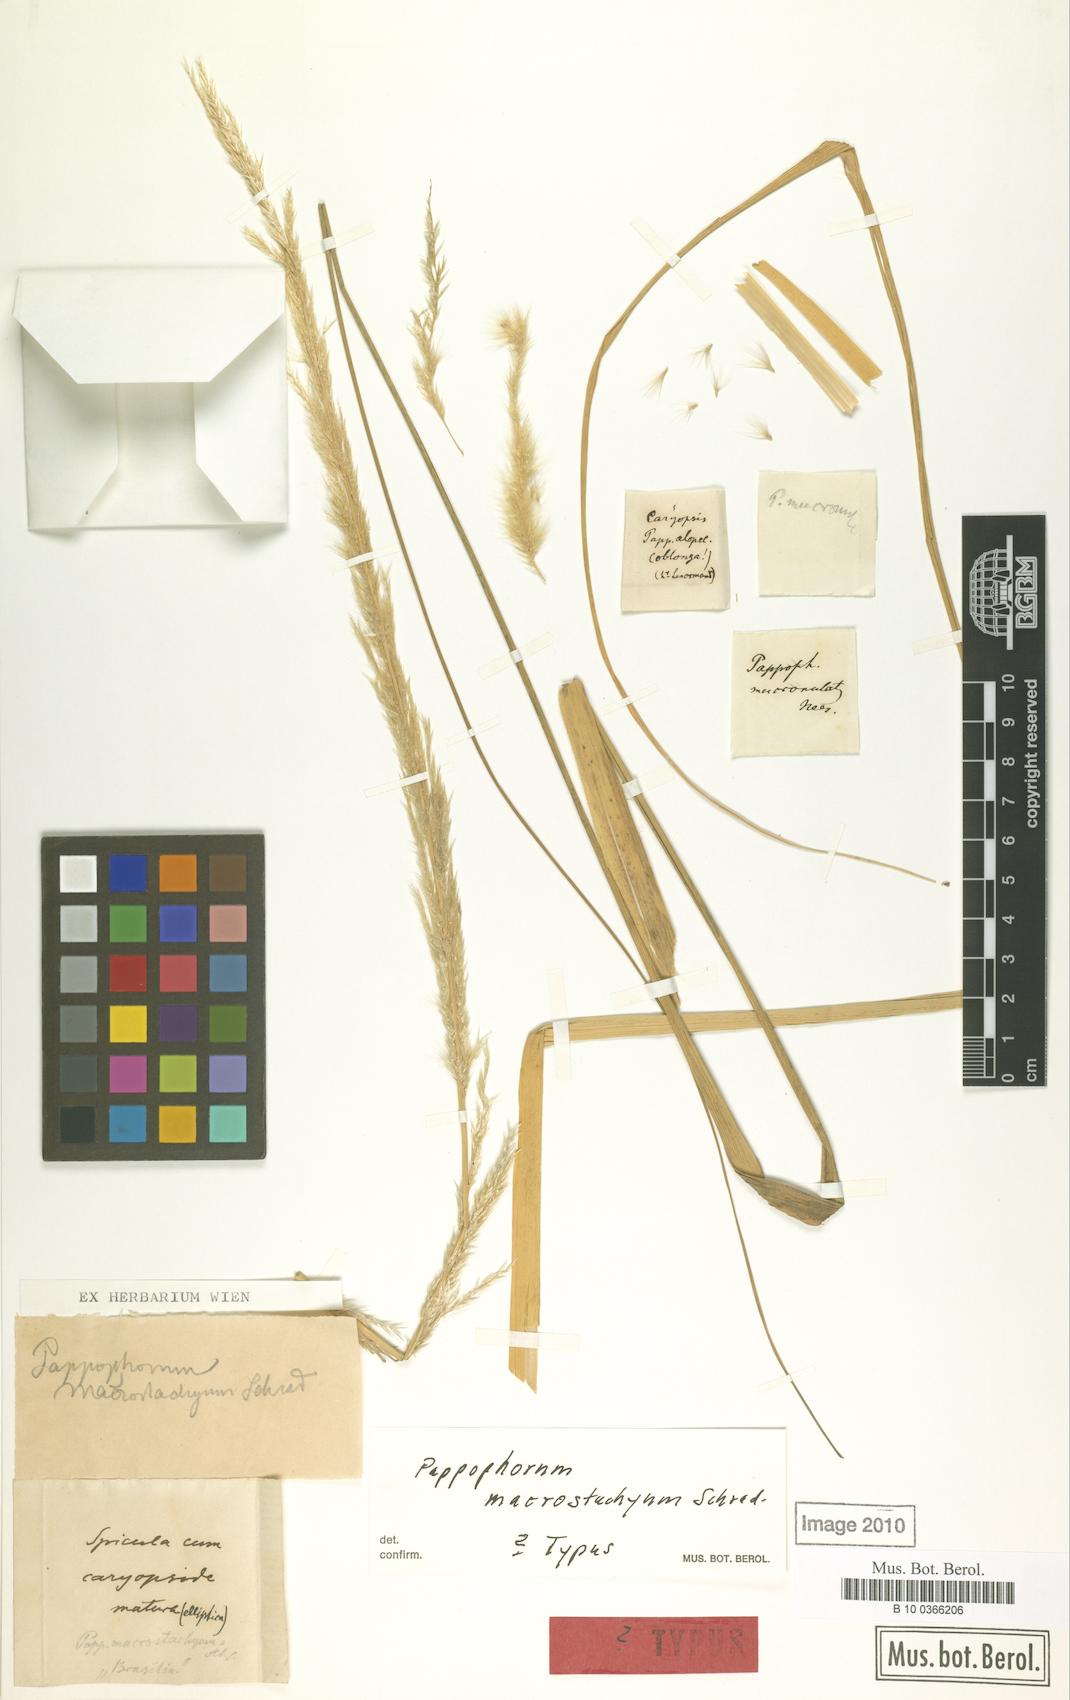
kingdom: Plantae
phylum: Tracheophyta
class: Liliopsida
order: Poales
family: Poaceae
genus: Pappophorum
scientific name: Pappophorum pappiferum
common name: Crabgrass
